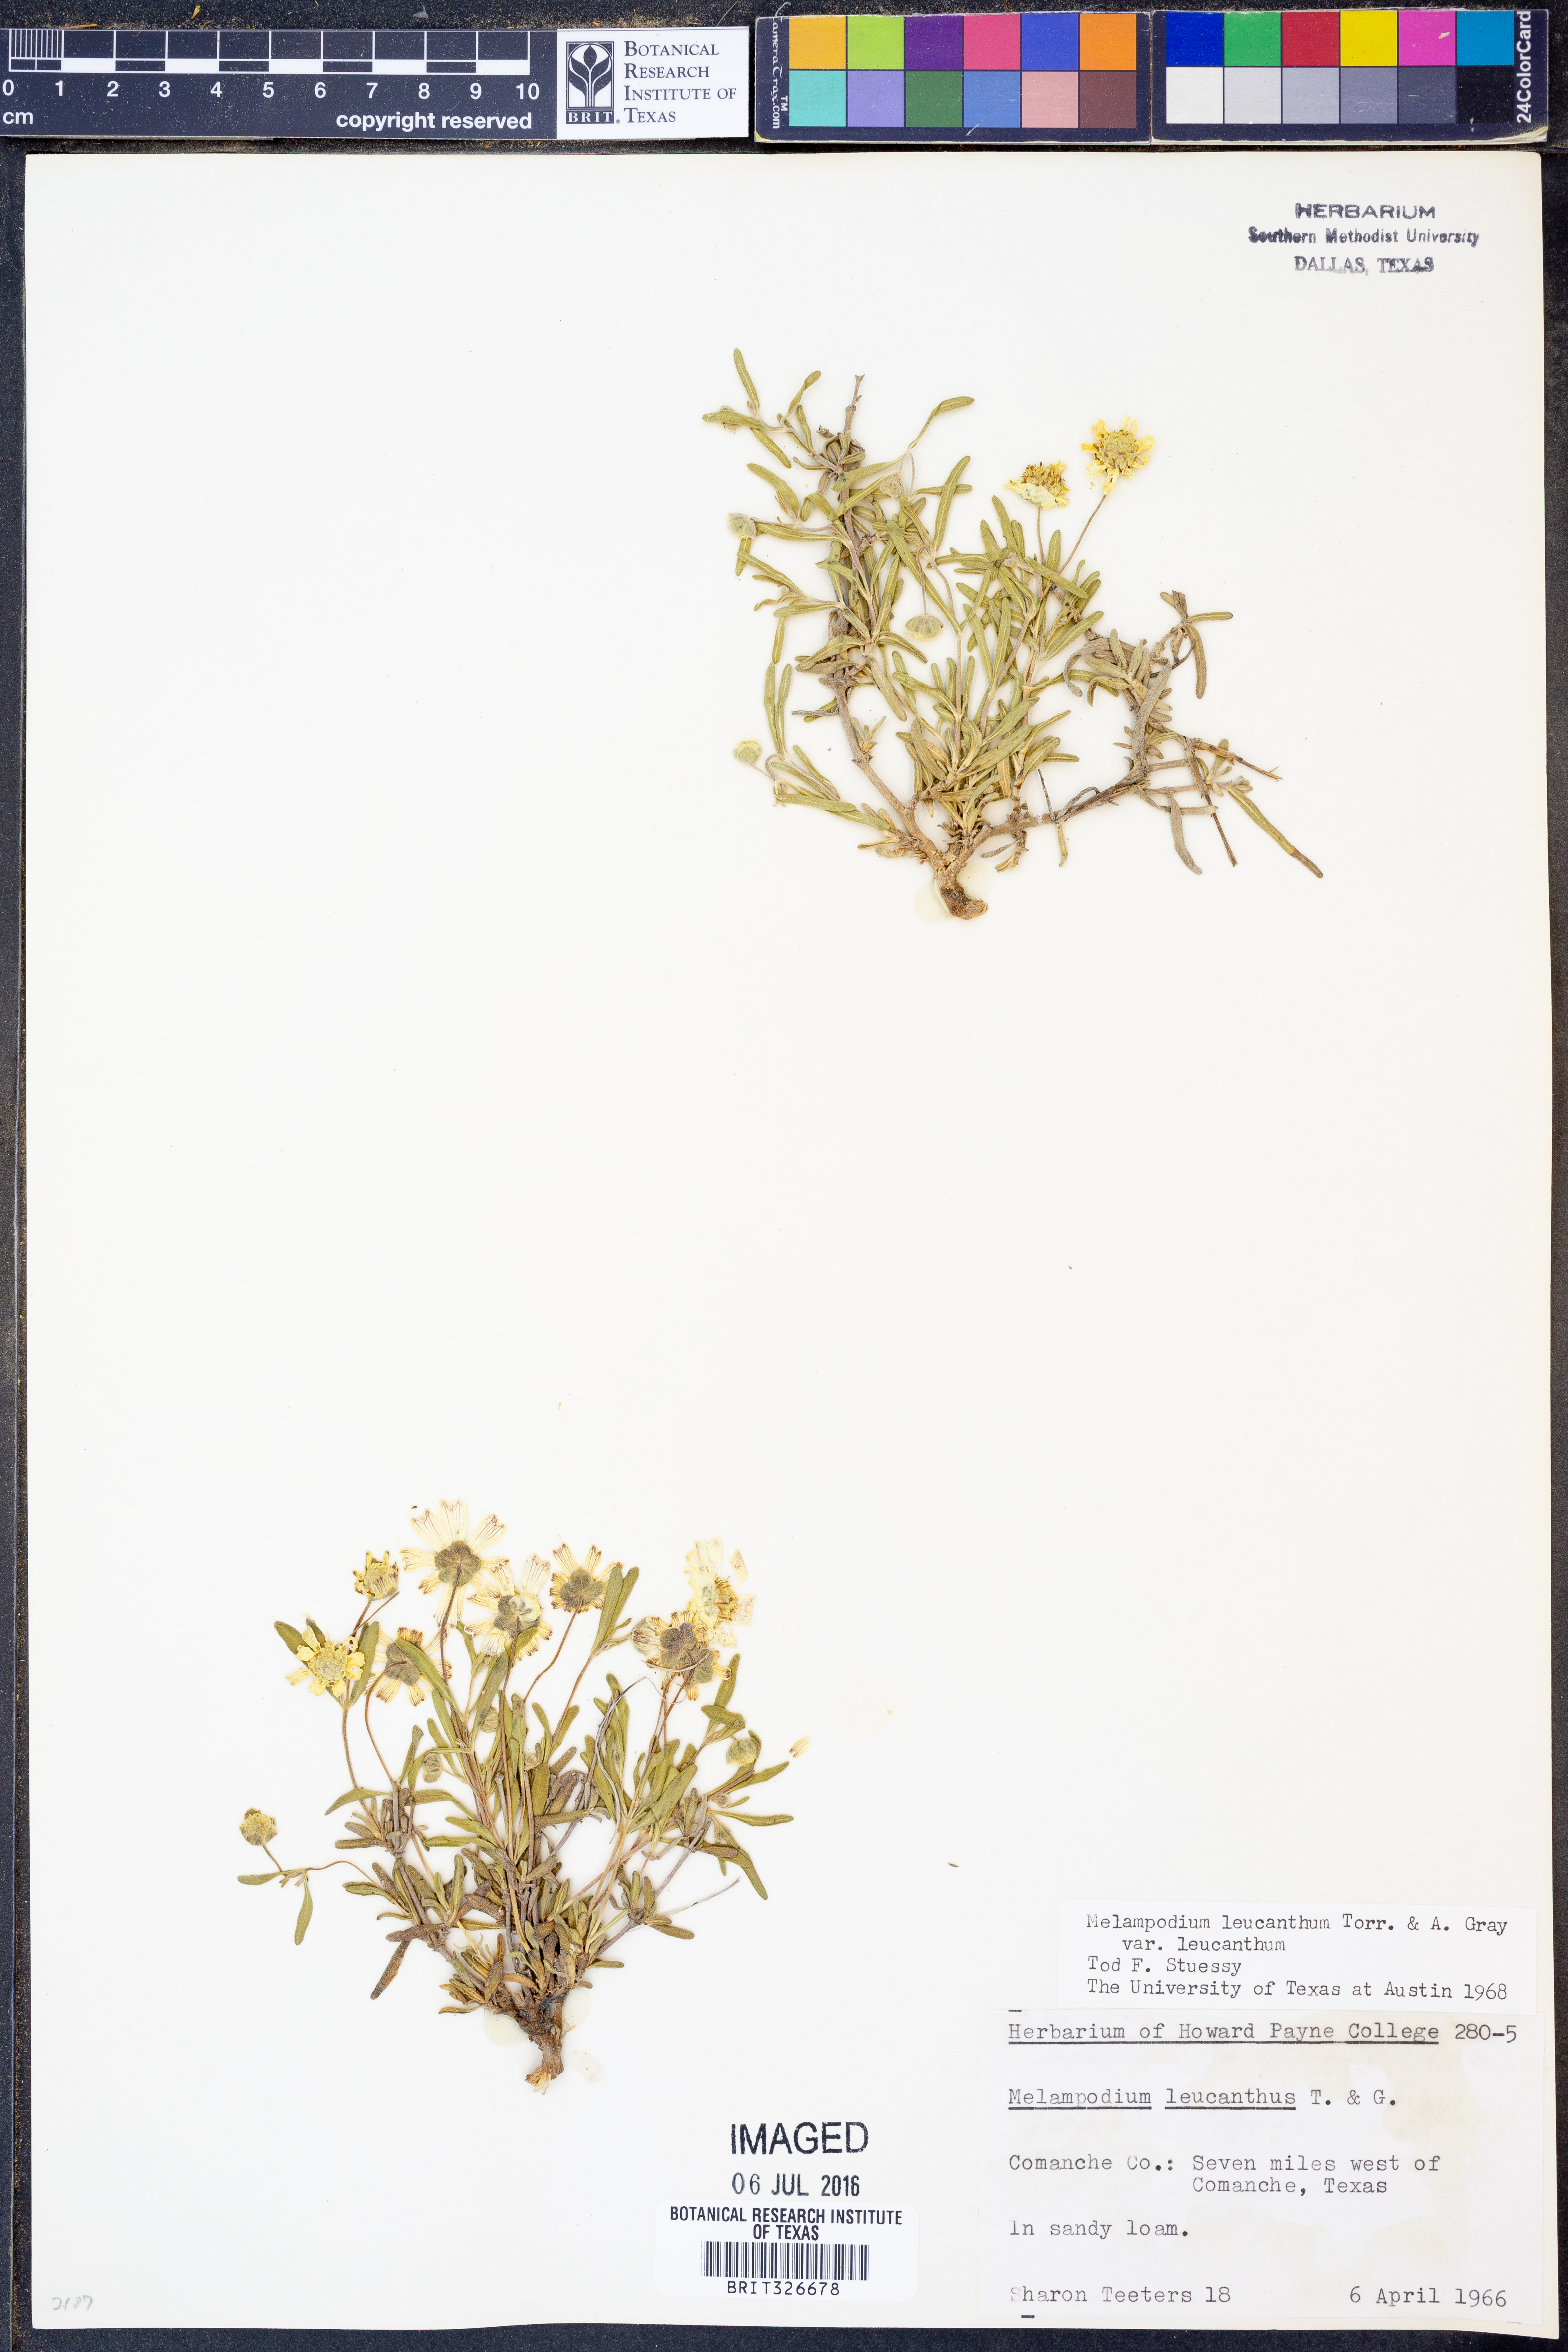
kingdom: Plantae
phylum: Tracheophyta
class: Magnoliopsida
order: Asterales
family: Asteraceae
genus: Melampodium
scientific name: Melampodium leucanthum
